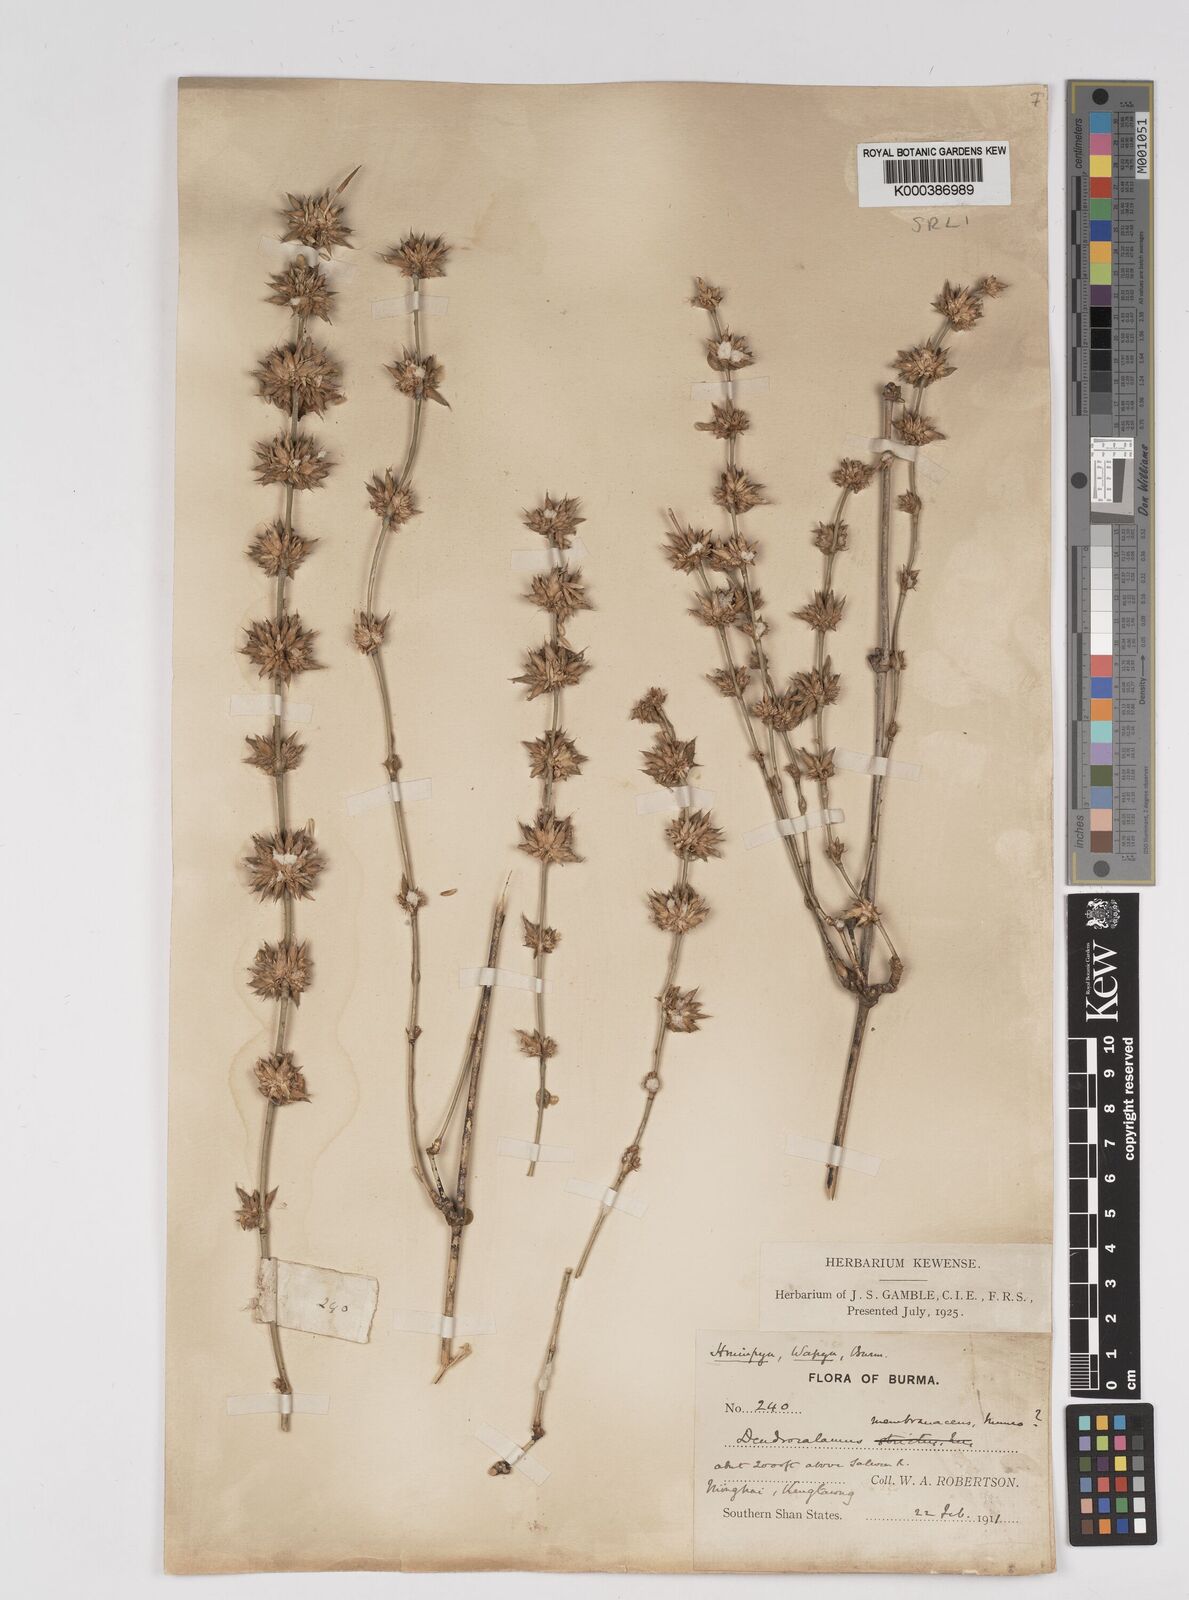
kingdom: Plantae
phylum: Tracheophyta
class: Liliopsida
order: Poales
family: Poaceae
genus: Dendrocalamus
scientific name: Dendrocalamus membranaceus
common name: White bamboo
